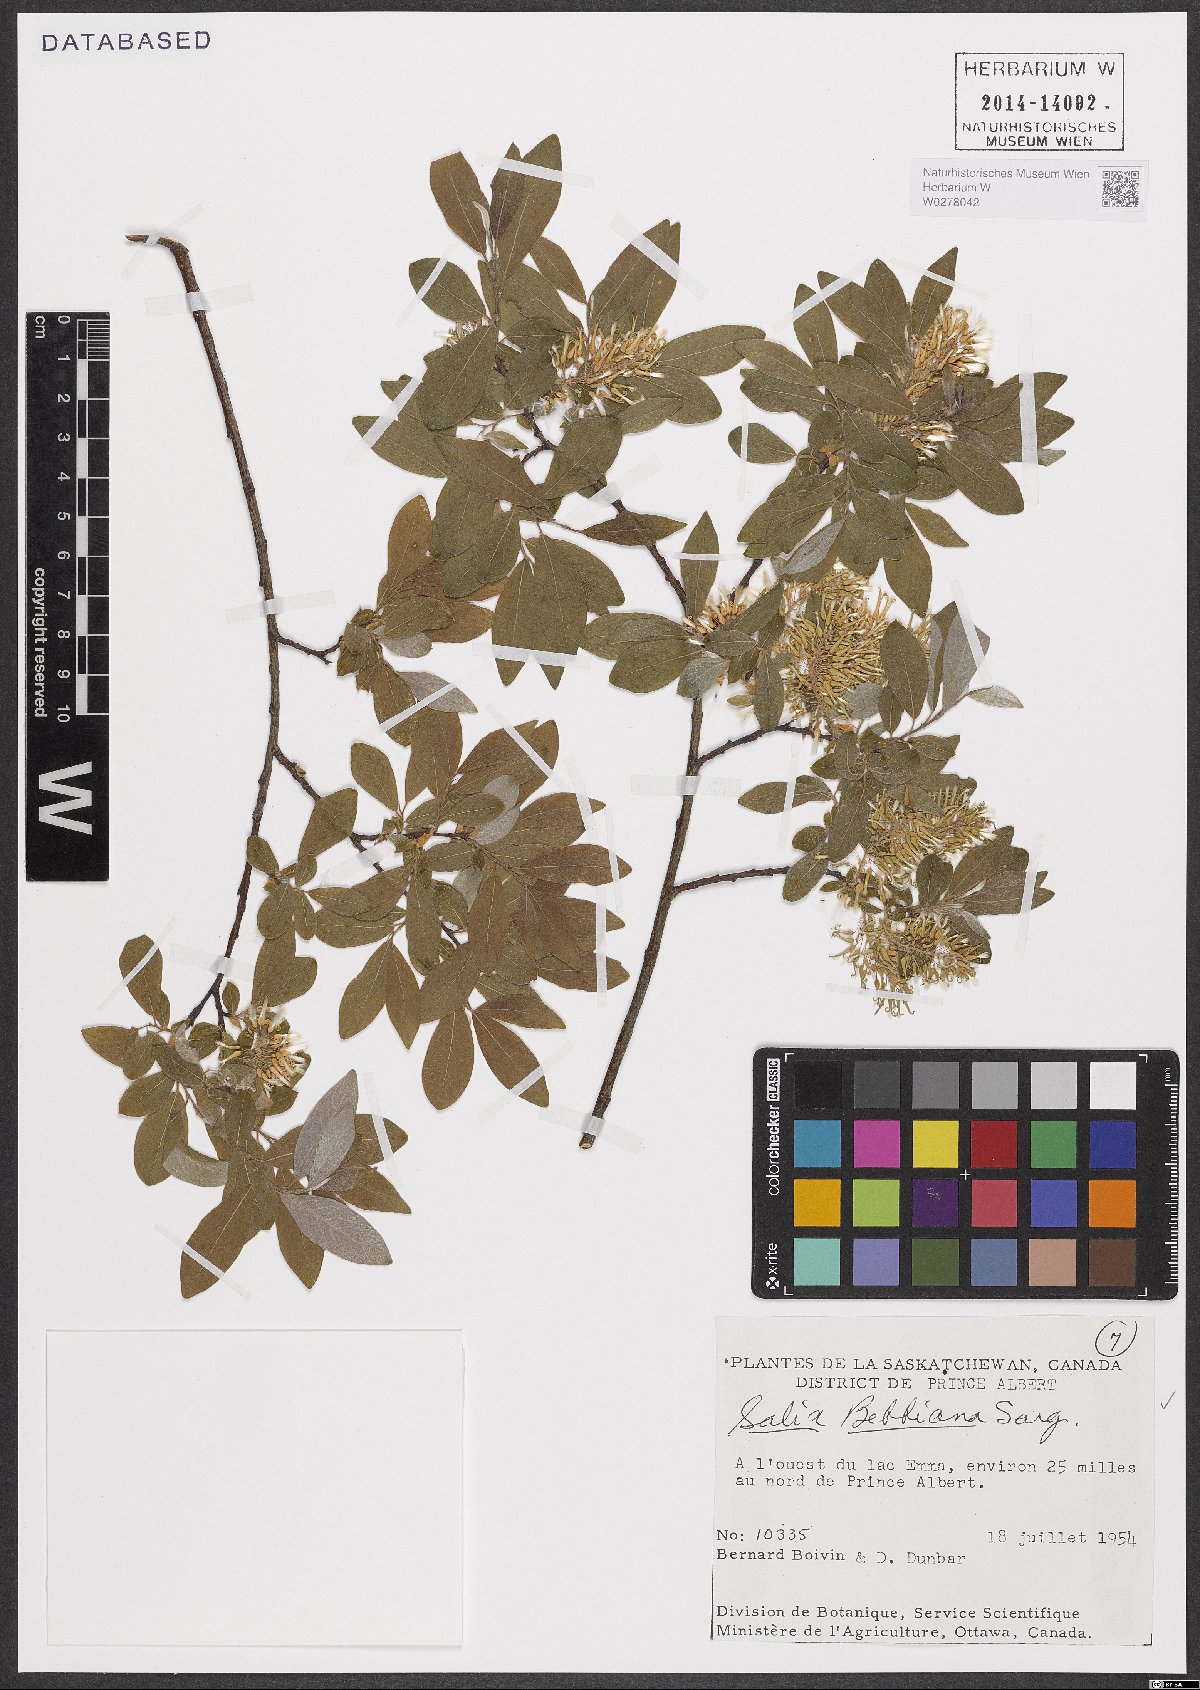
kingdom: Plantae
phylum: Tracheophyta
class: Magnoliopsida
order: Malpighiales
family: Salicaceae
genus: Salix
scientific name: Salix bebbiana
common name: Bebb's willow
